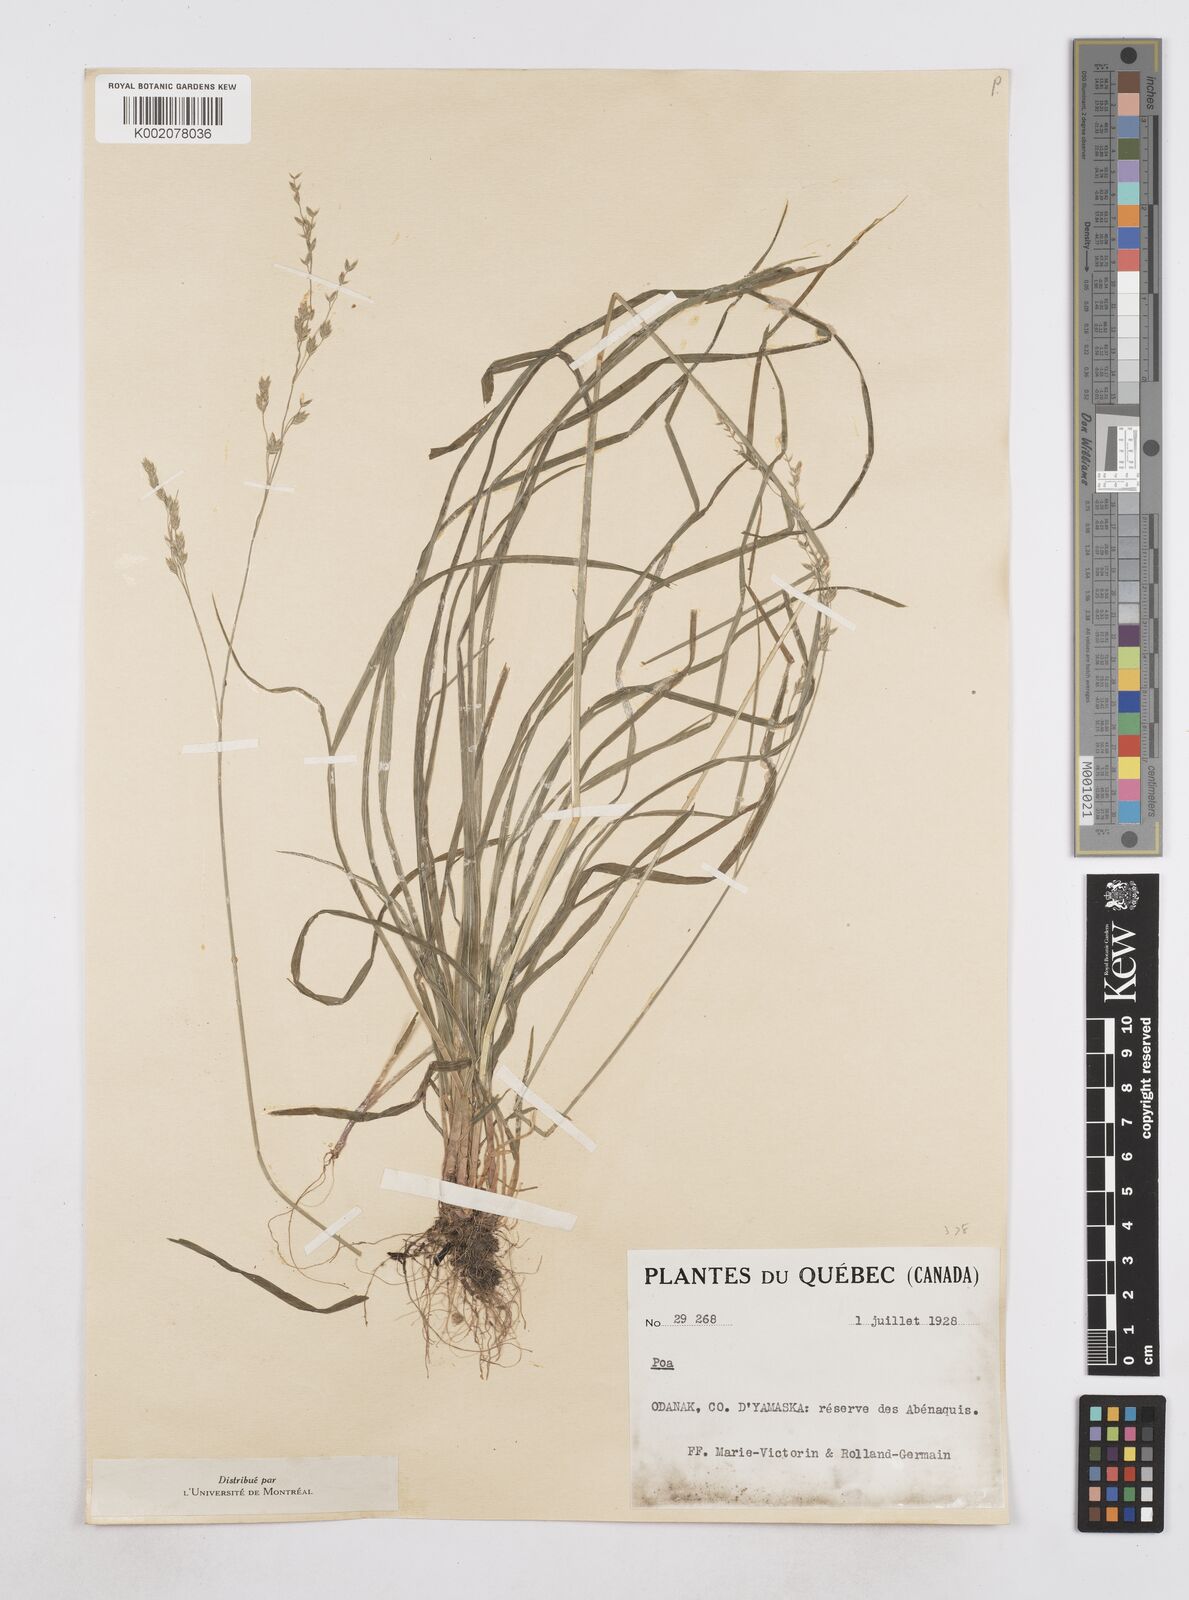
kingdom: Plantae
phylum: Tracheophyta
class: Liliopsida
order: Poales
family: Poaceae
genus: Poa
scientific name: Poa
